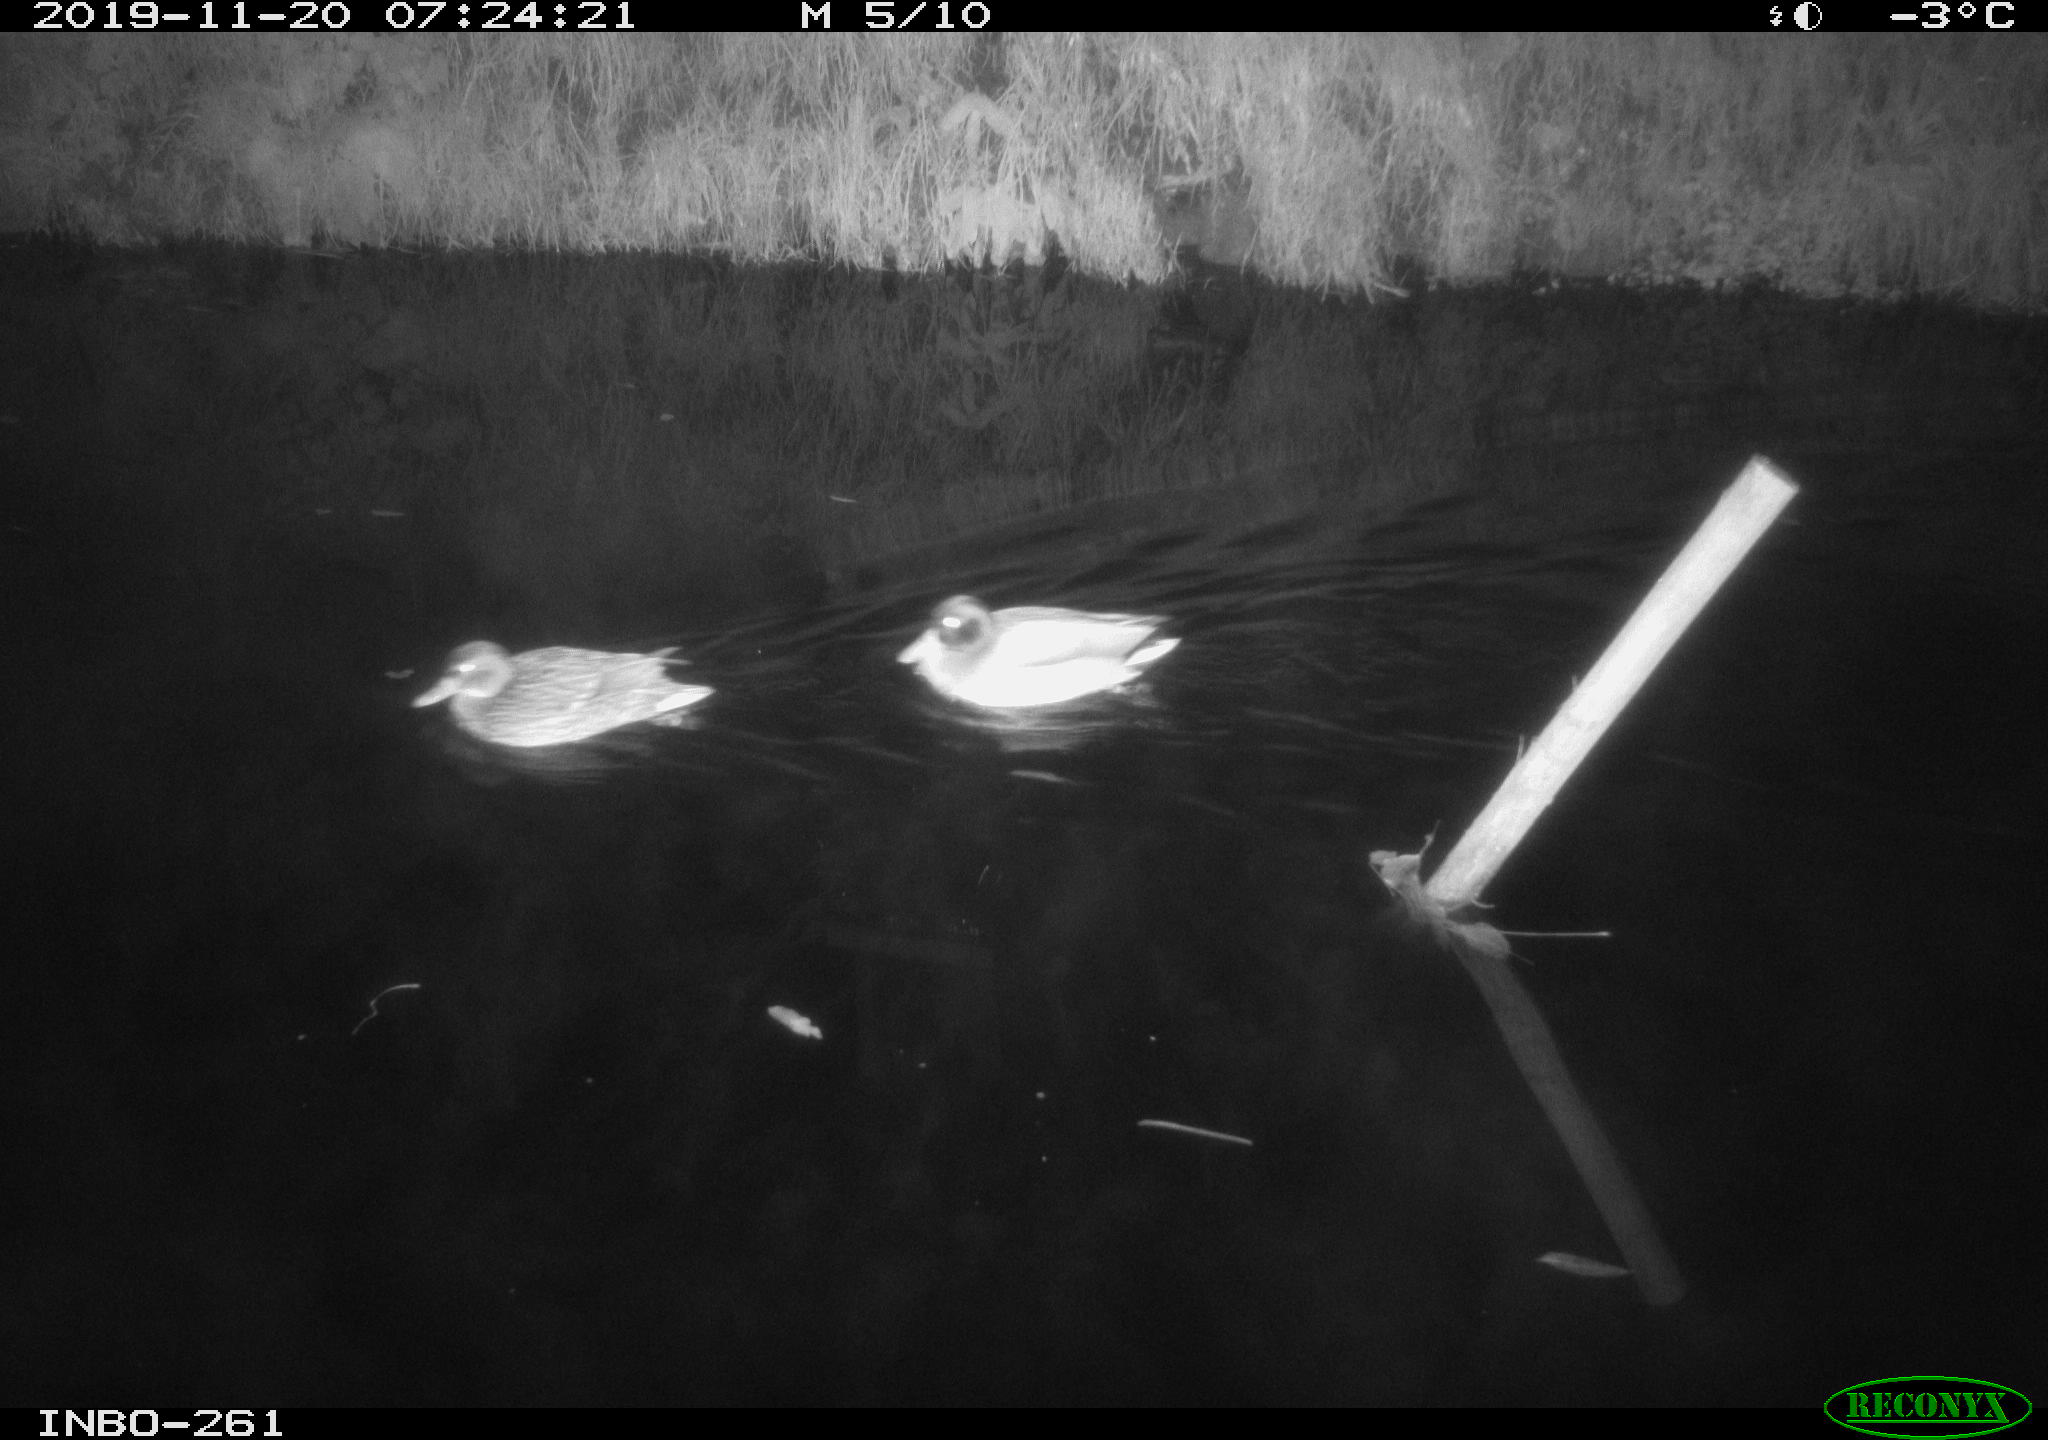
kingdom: Animalia
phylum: Chordata
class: Aves
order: Anseriformes
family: Anatidae
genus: Anas
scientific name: Anas platyrhynchos
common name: Mallard
